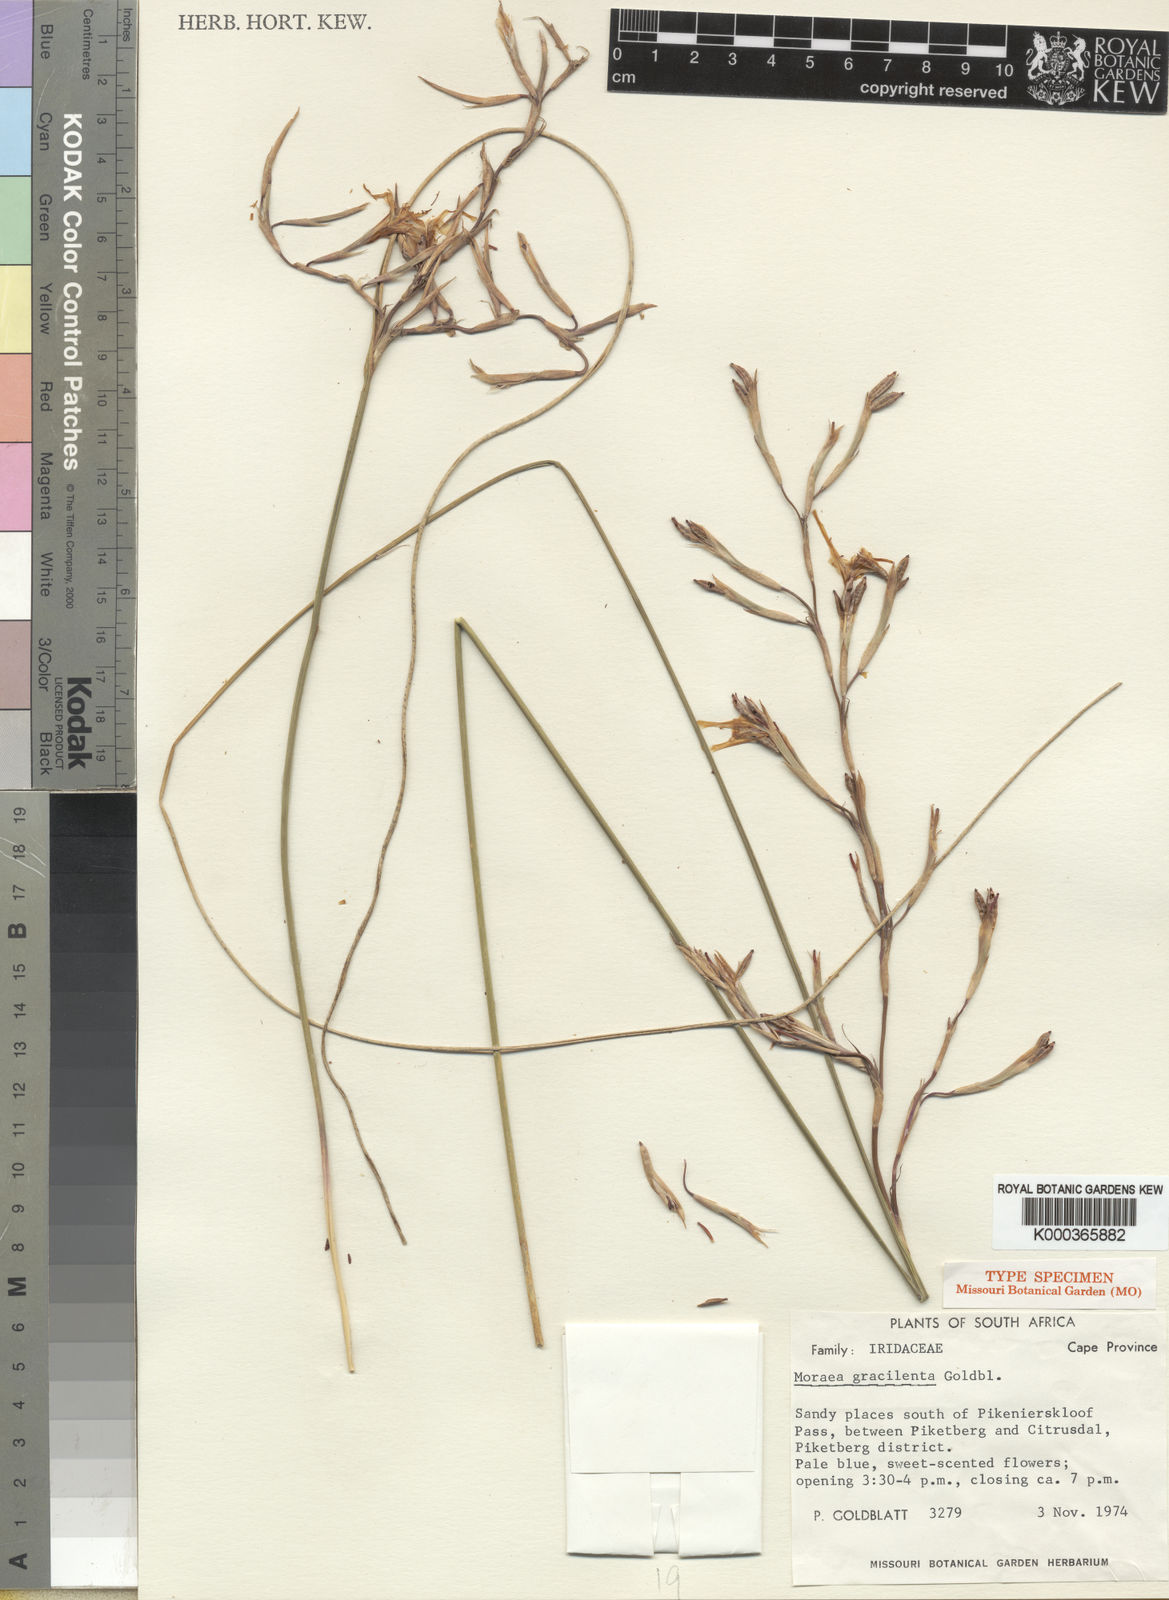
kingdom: Plantae
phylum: Tracheophyta
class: Liliopsida
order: Asparagales
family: Iridaceae
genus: Moraea
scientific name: Moraea gracilenta
